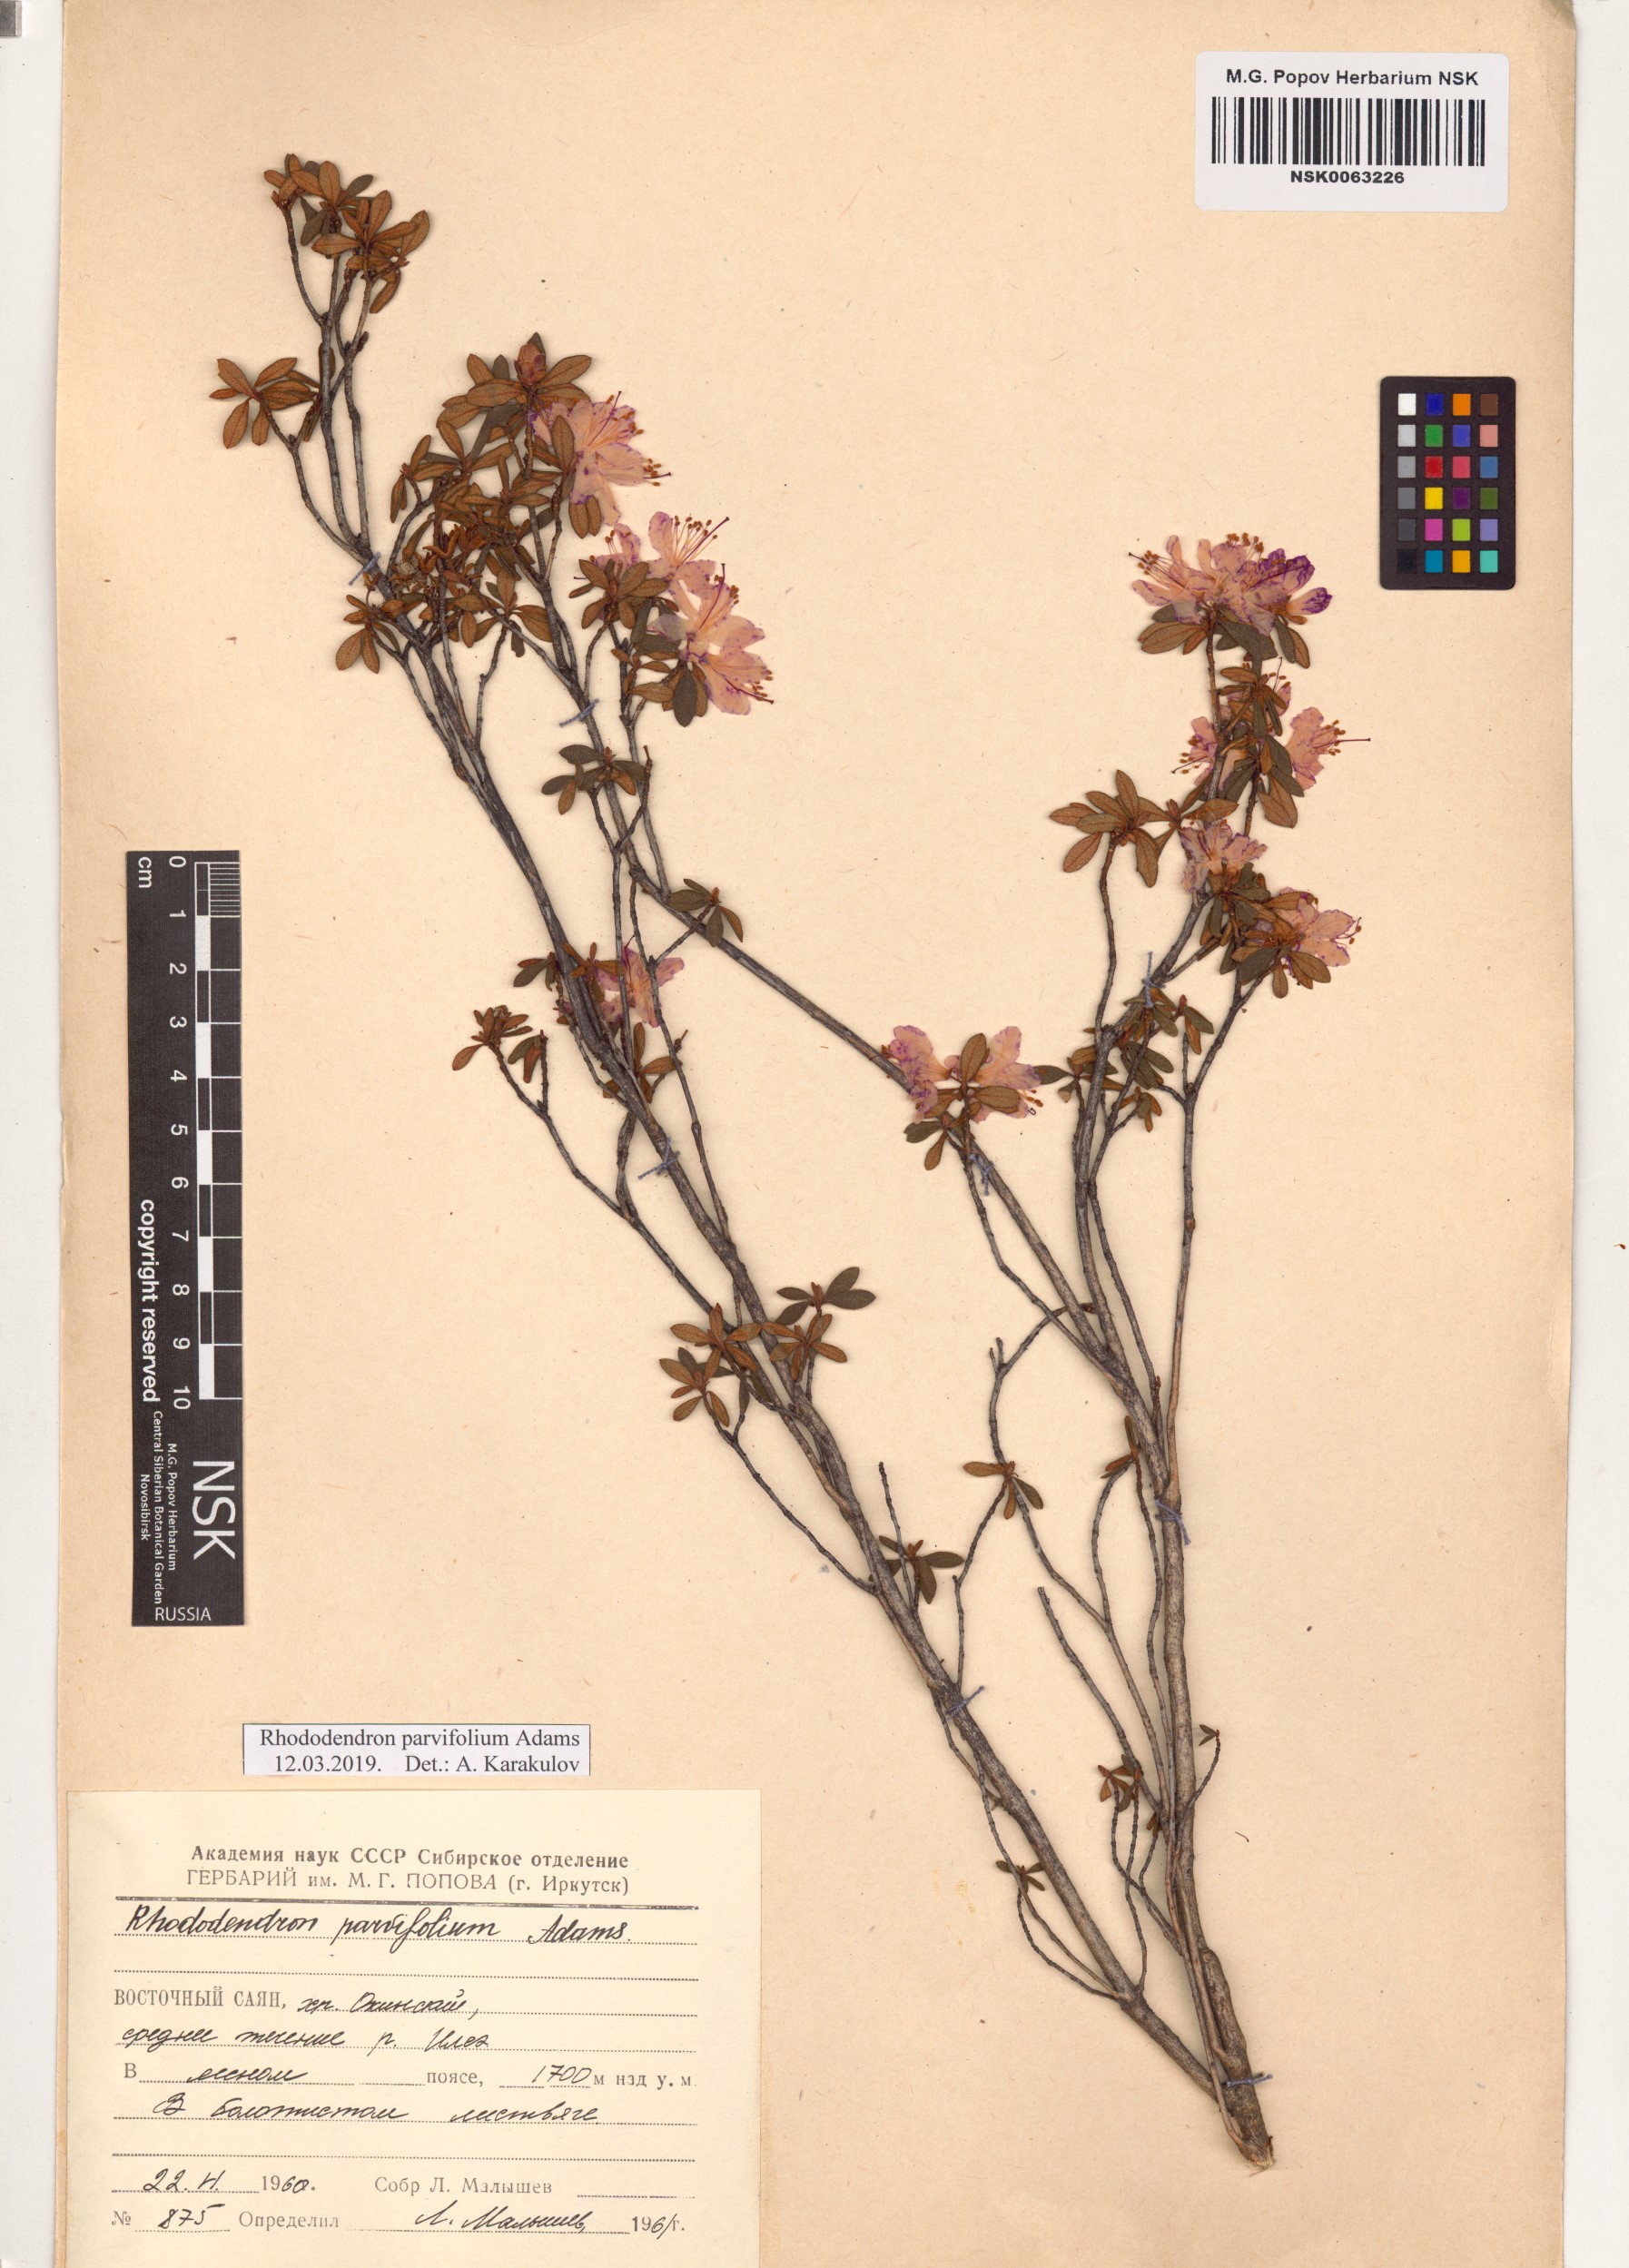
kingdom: Plantae
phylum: Tracheophyta
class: Magnoliopsida
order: Ericales
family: Ericaceae
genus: Rhododendron
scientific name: Rhododendron parvifolium
